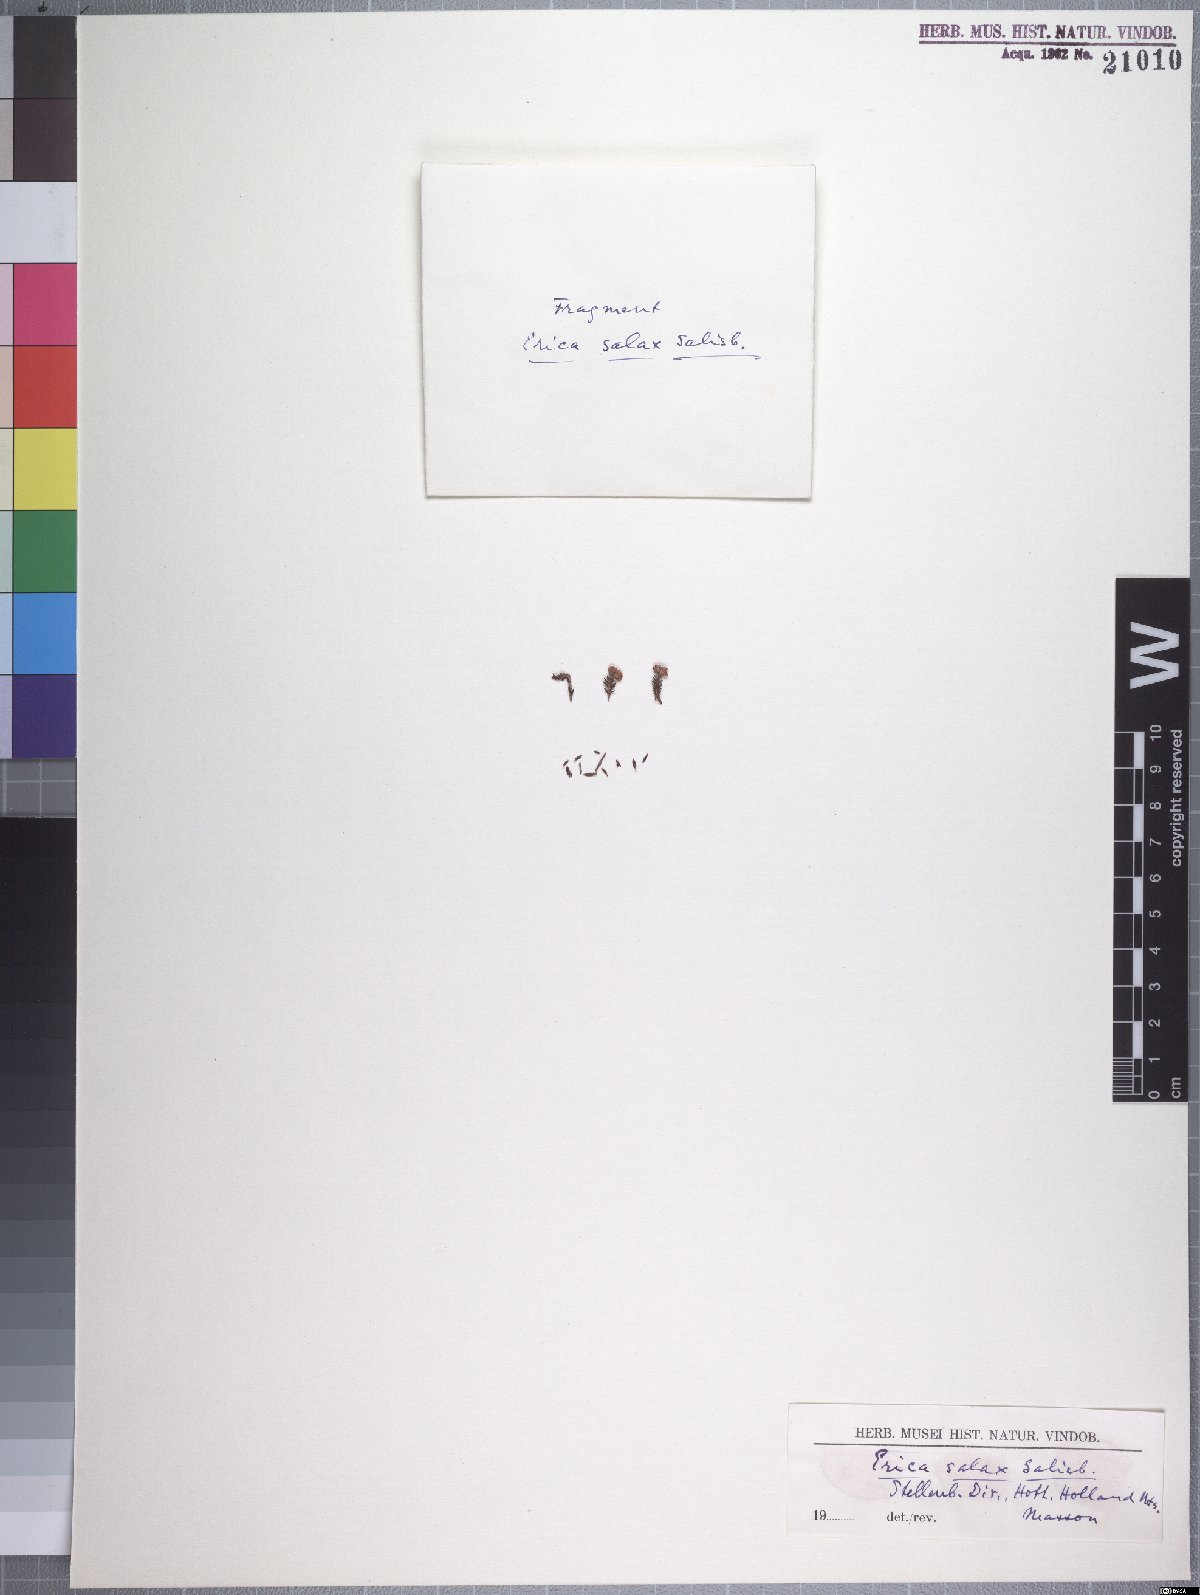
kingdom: Plantae
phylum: Tracheophyta
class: Magnoliopsida
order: Ericales
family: Ericaceae
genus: Erica
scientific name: Erica salax
